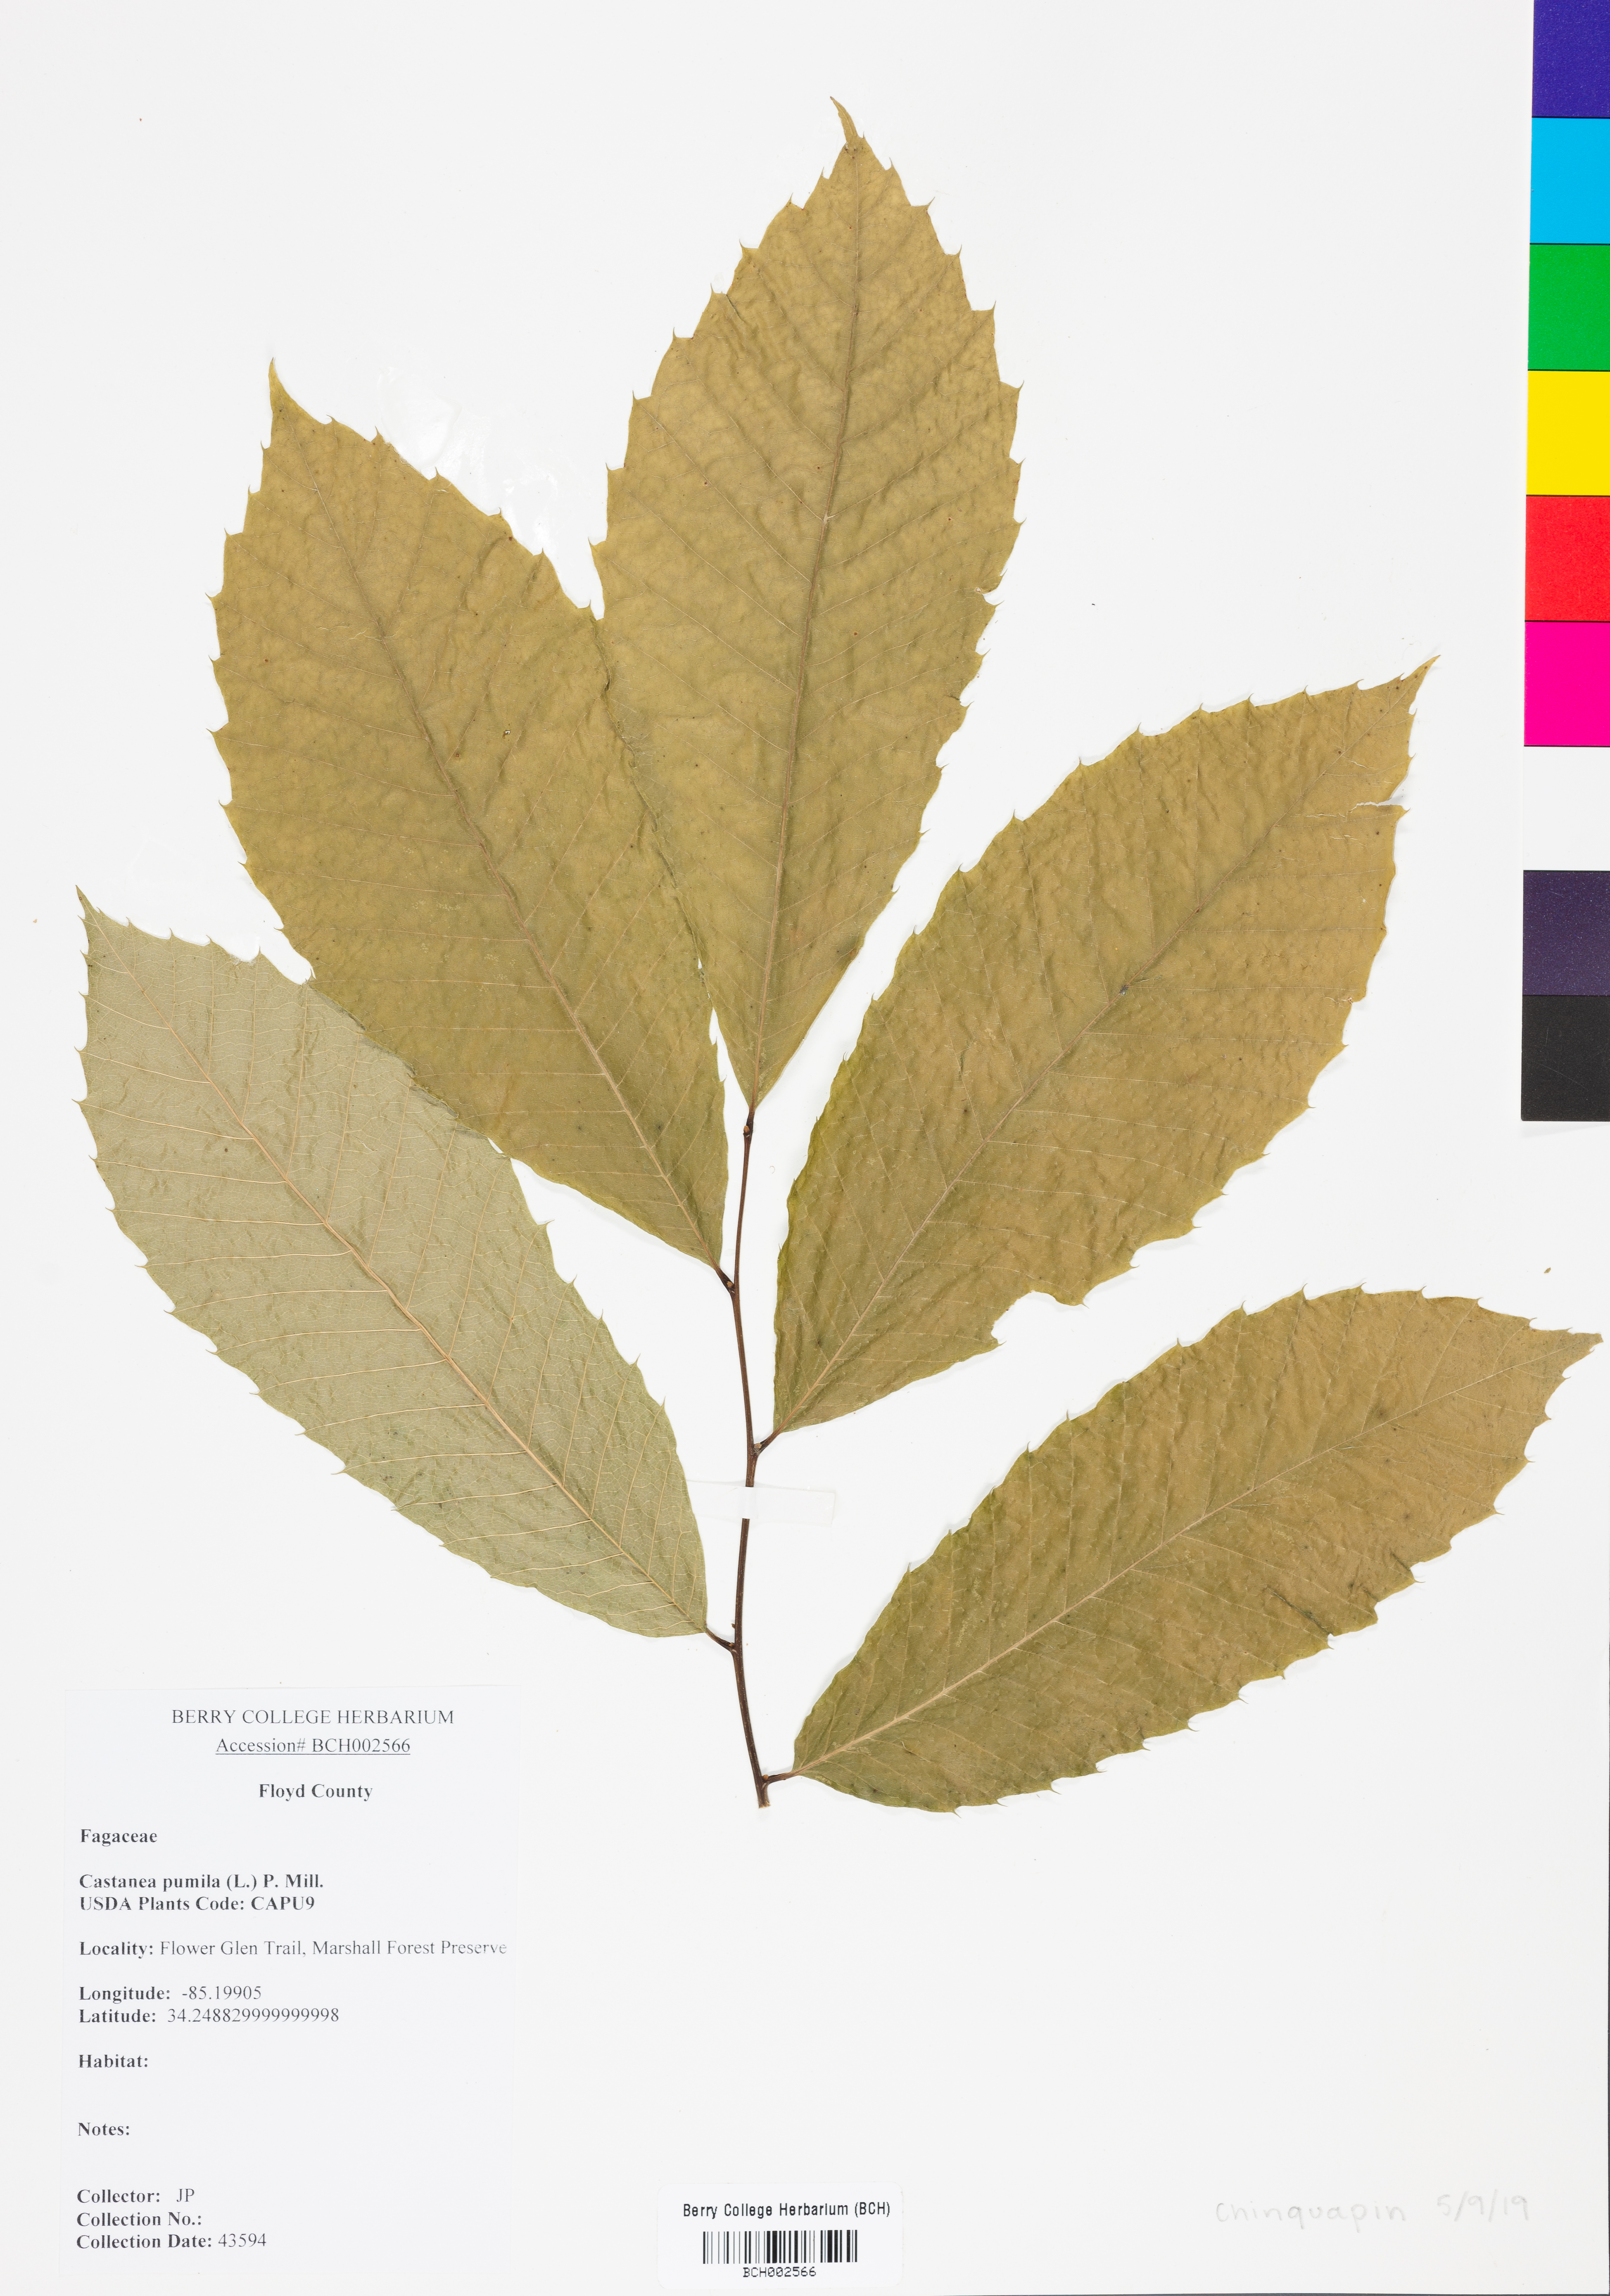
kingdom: Plantae
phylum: Tracheophyta
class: Magnoliopsida
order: Fagales
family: Fagaceae
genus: Castanea
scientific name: Castanea pumila
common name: Chinkapin
